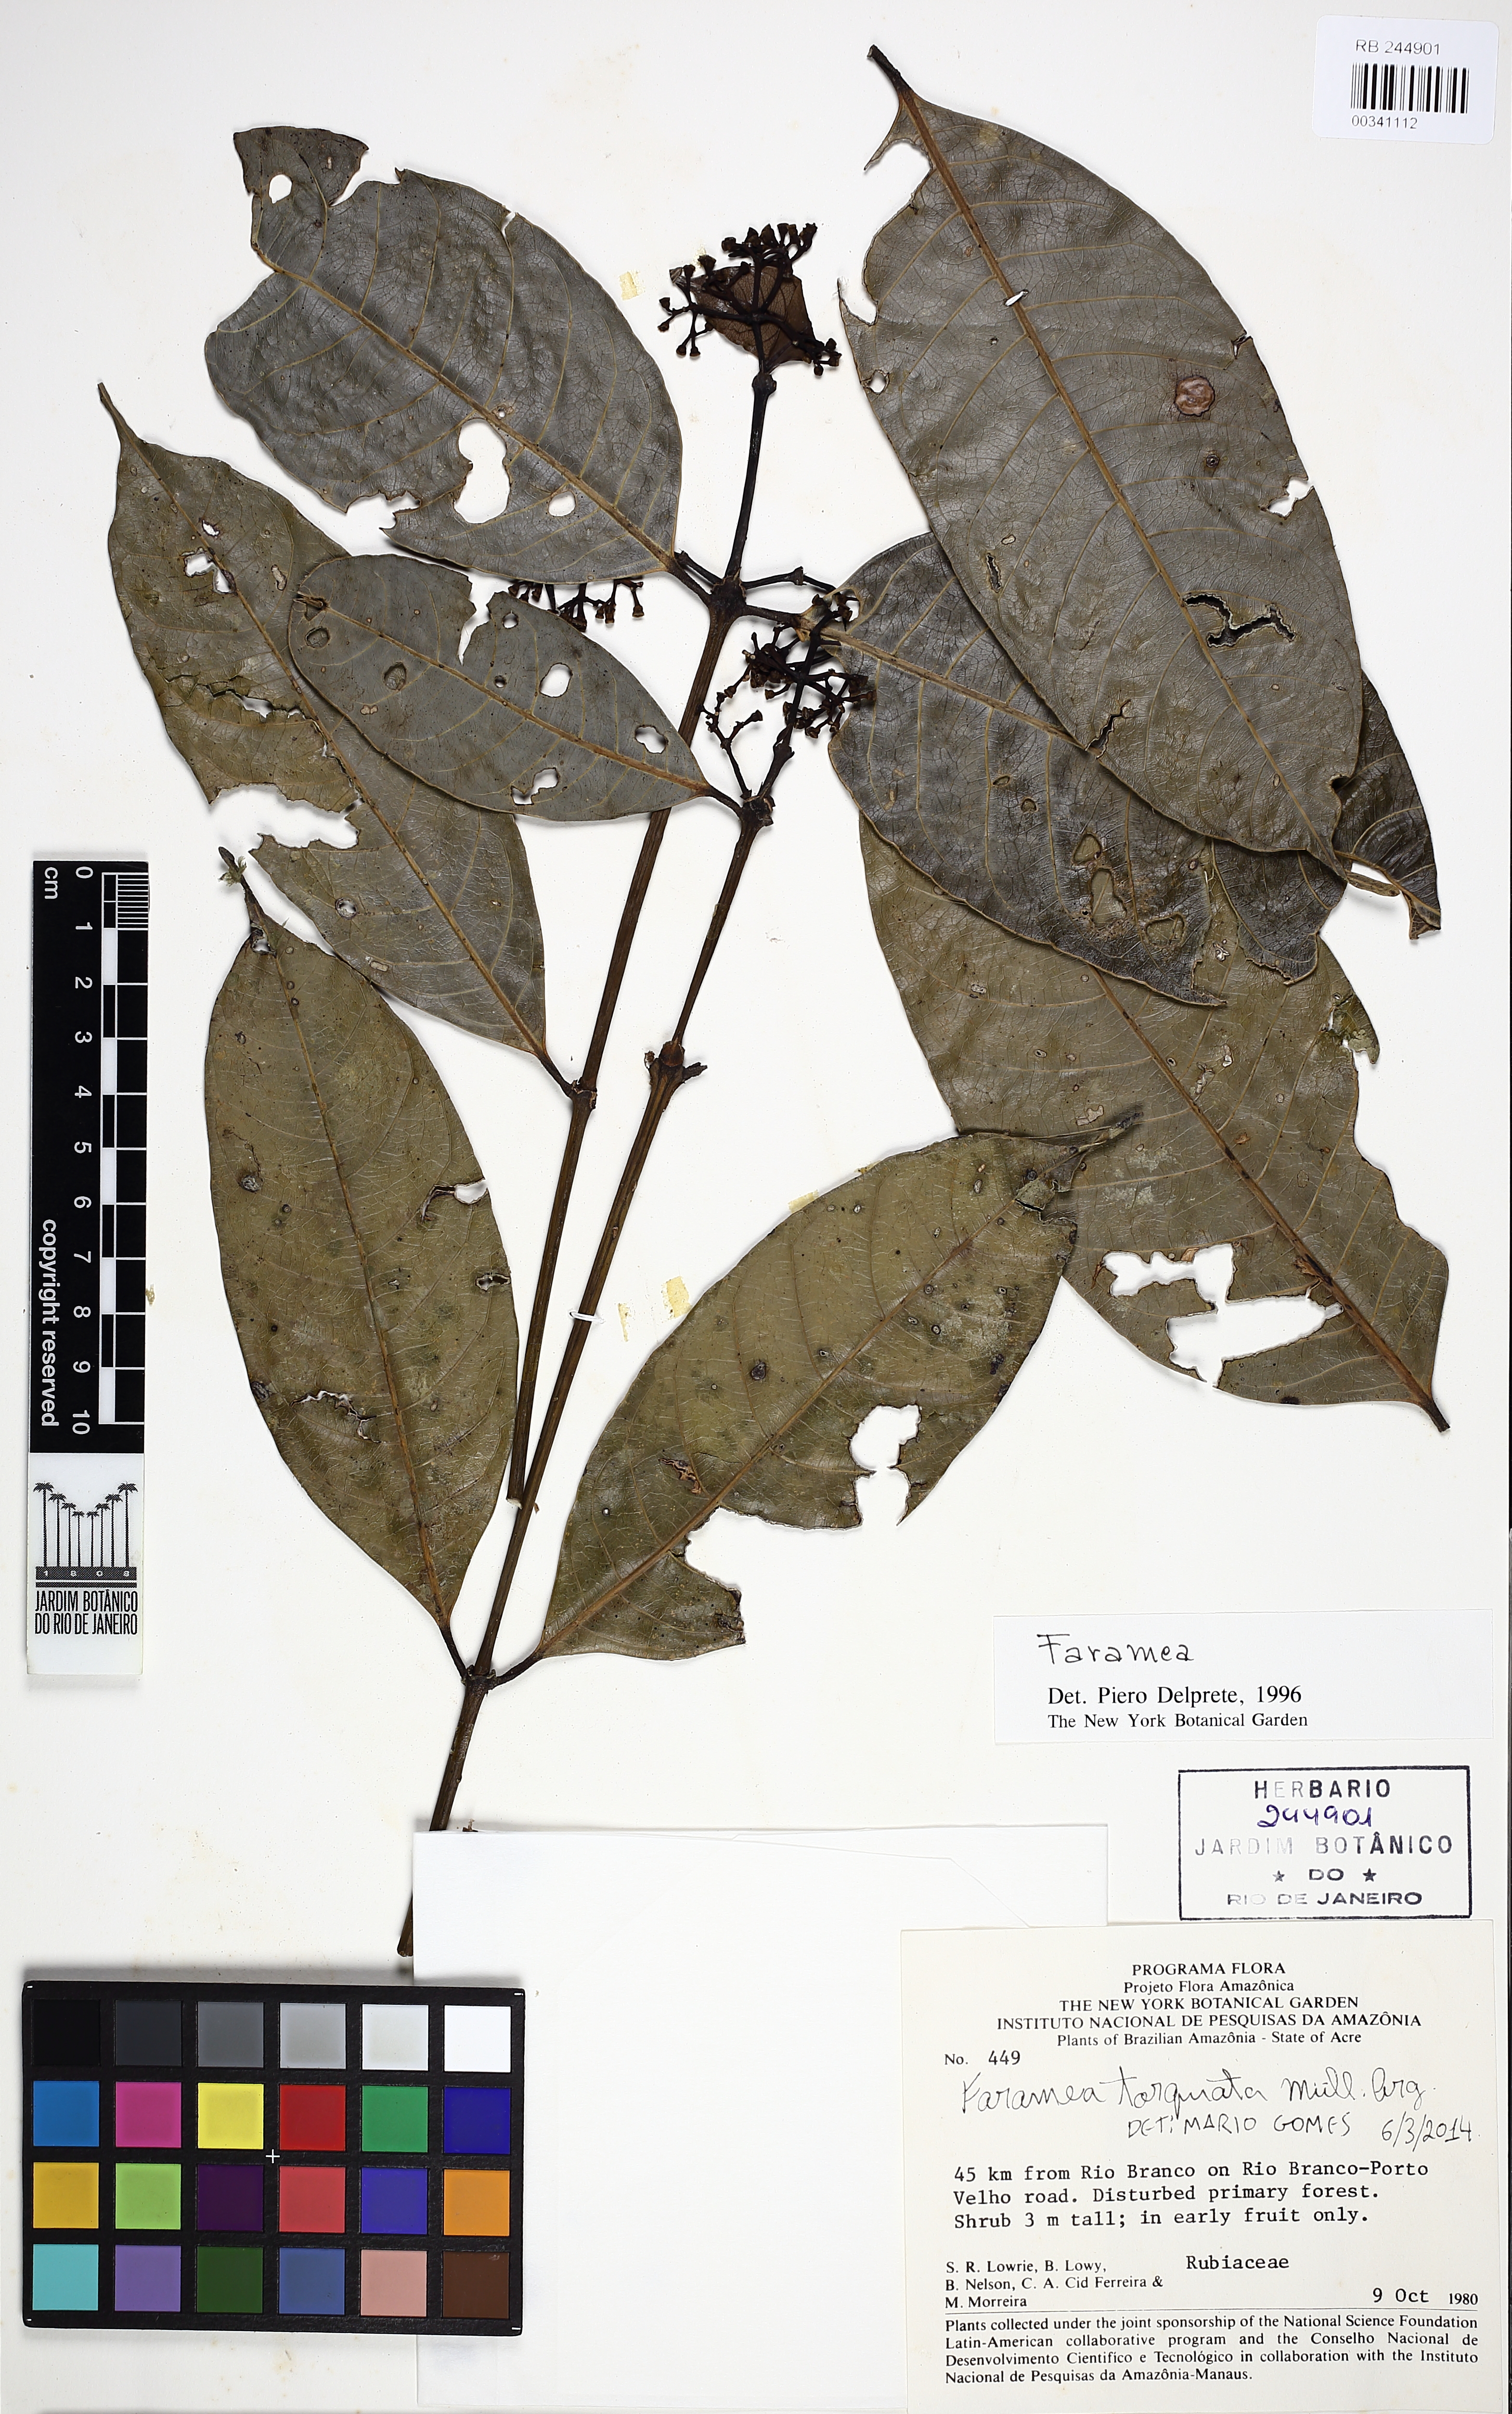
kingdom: Plantae
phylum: Tracheophyta
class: Magnoliopsida
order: Gentianales
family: Rubiaceae
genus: Faramea
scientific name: Faramea torquata
